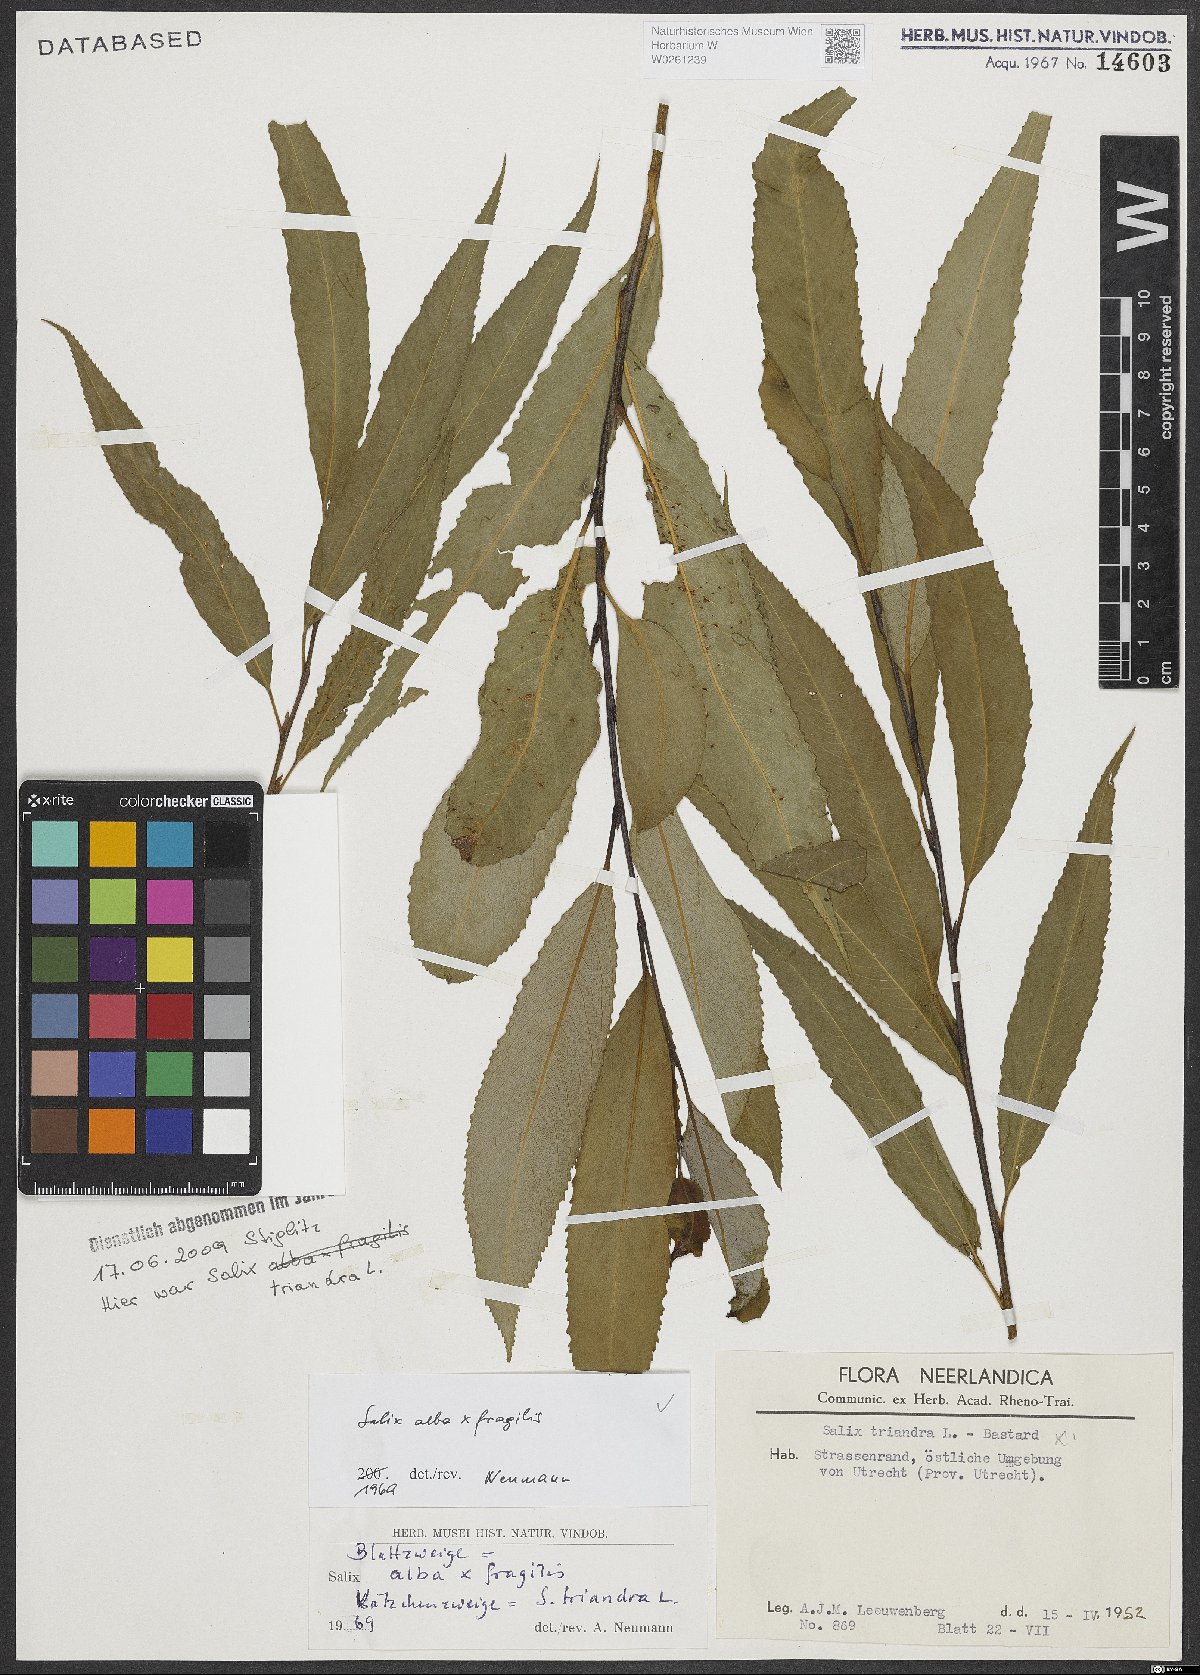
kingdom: Plantae
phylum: Tracheophyta
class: Magnoliopsida
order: Malpighiales
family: Salicaceae
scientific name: Salicaceae
